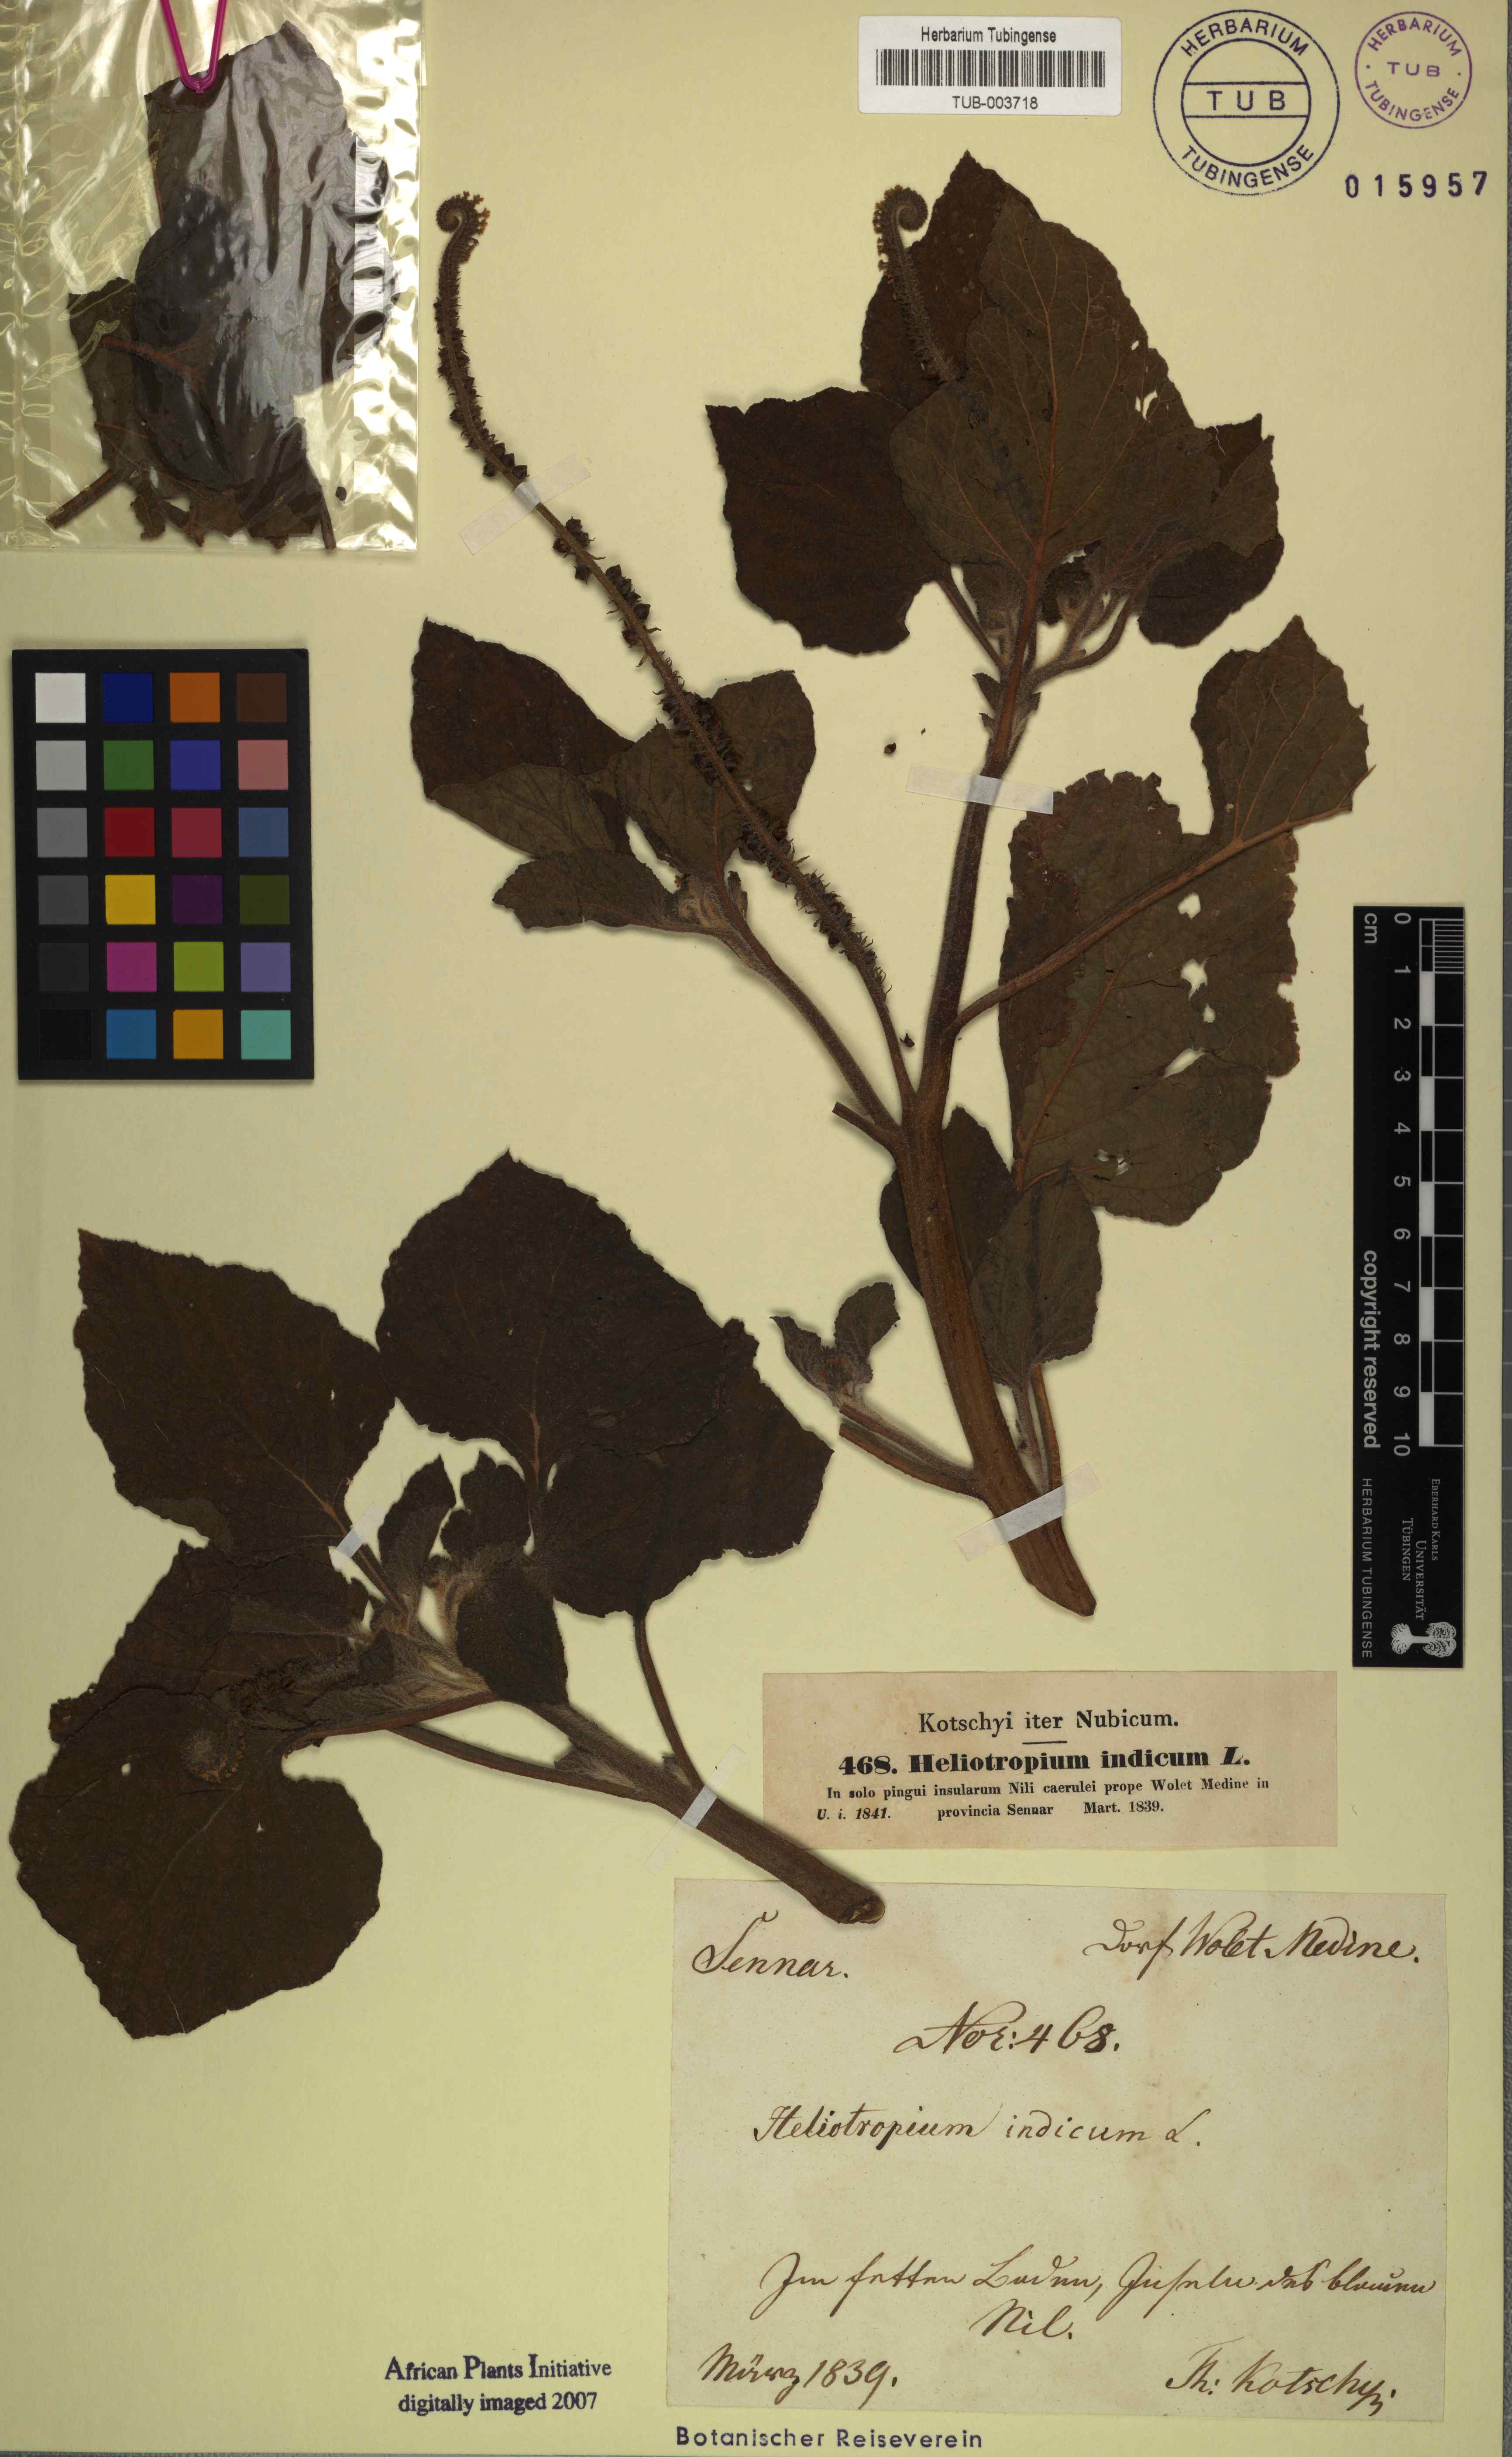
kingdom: Plantae
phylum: Tracheophyta
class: Magnoliopsida
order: Boraginales
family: Heliotropiaceae
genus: Heliotropium
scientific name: Heliotropium indicum
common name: Indian heliotrope
